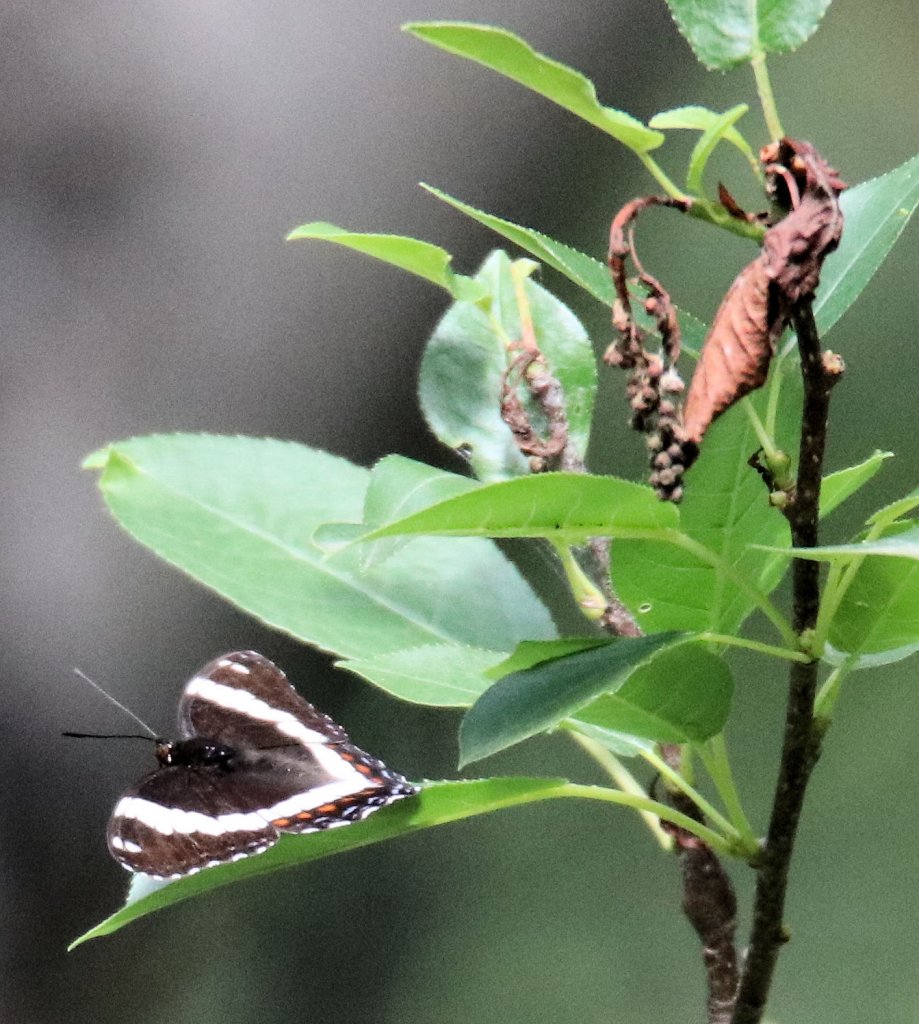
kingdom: Animalia
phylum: Arthropoda
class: Insecta
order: Lepidoptera
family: Nymphalidae
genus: Limenitis
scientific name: Limenitis arthemis
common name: Red-spotted Admiral
